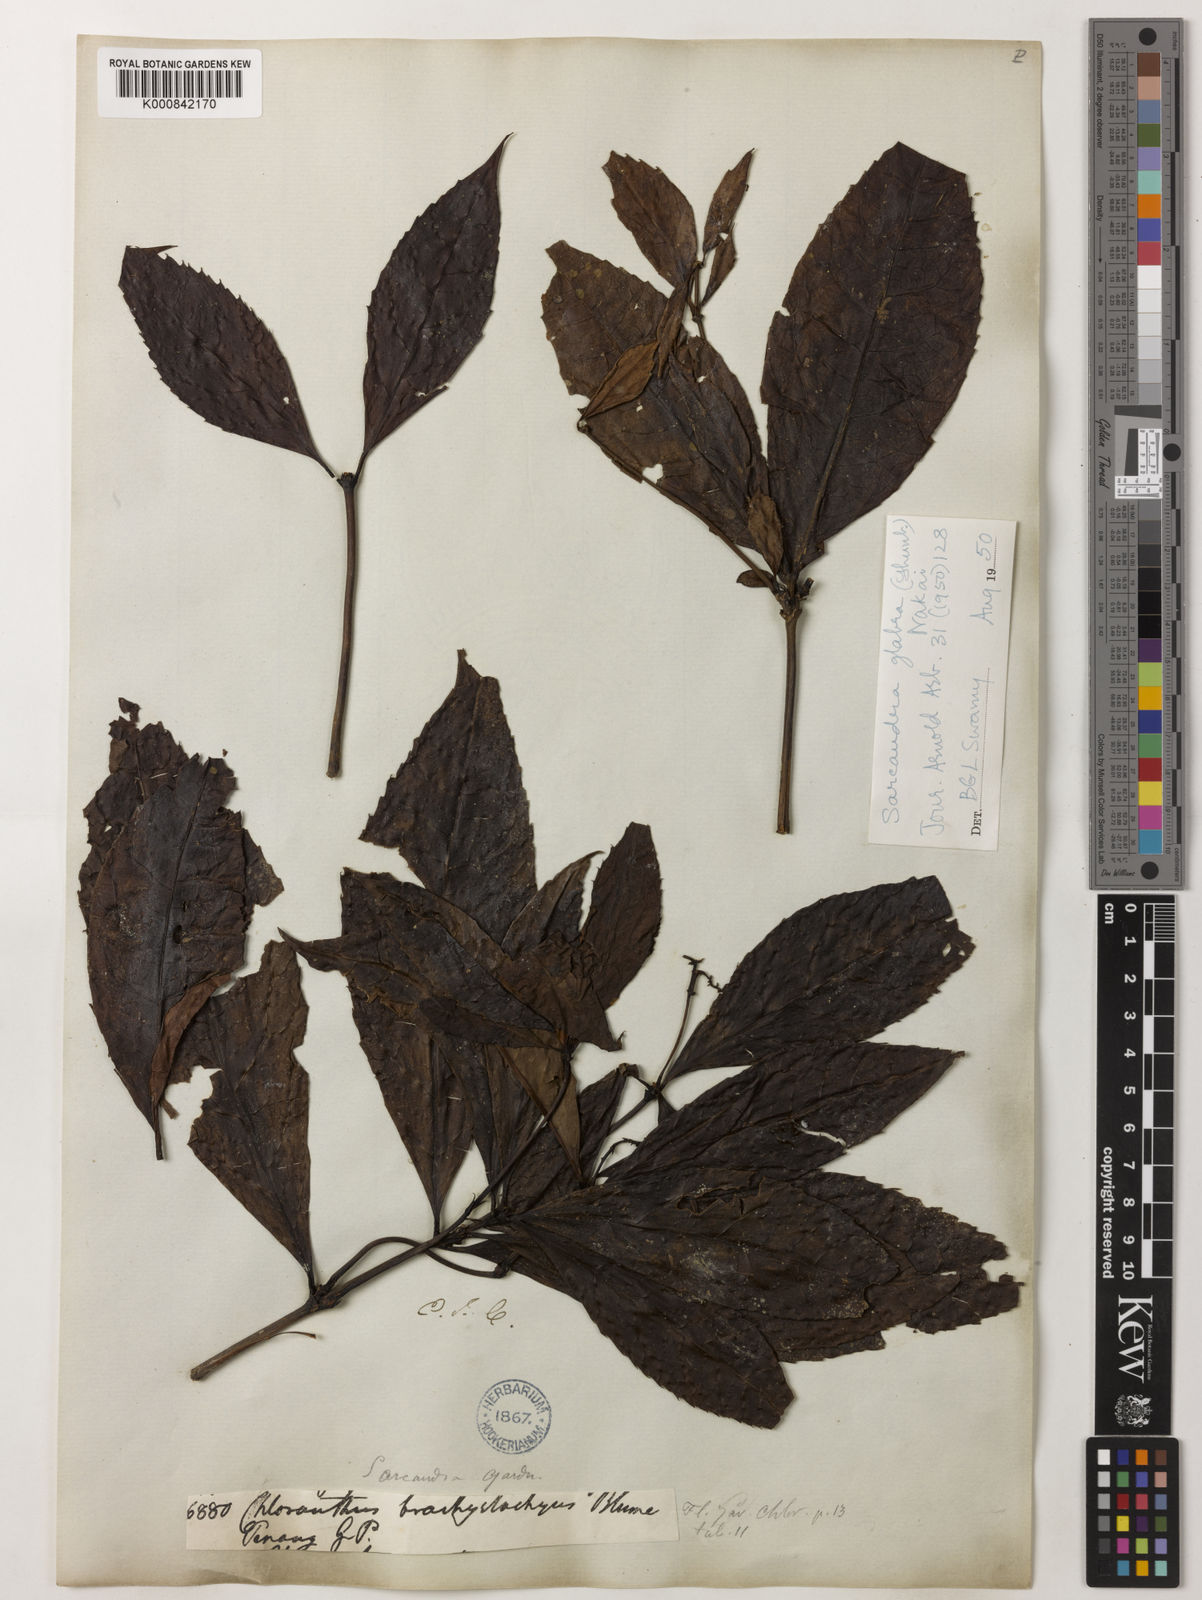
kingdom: Plantae
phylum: Tracheophyta
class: Magnoliopsida
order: Chloranthales
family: Chloranthaceae
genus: Sarcandra
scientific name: Sarcandra glabra
